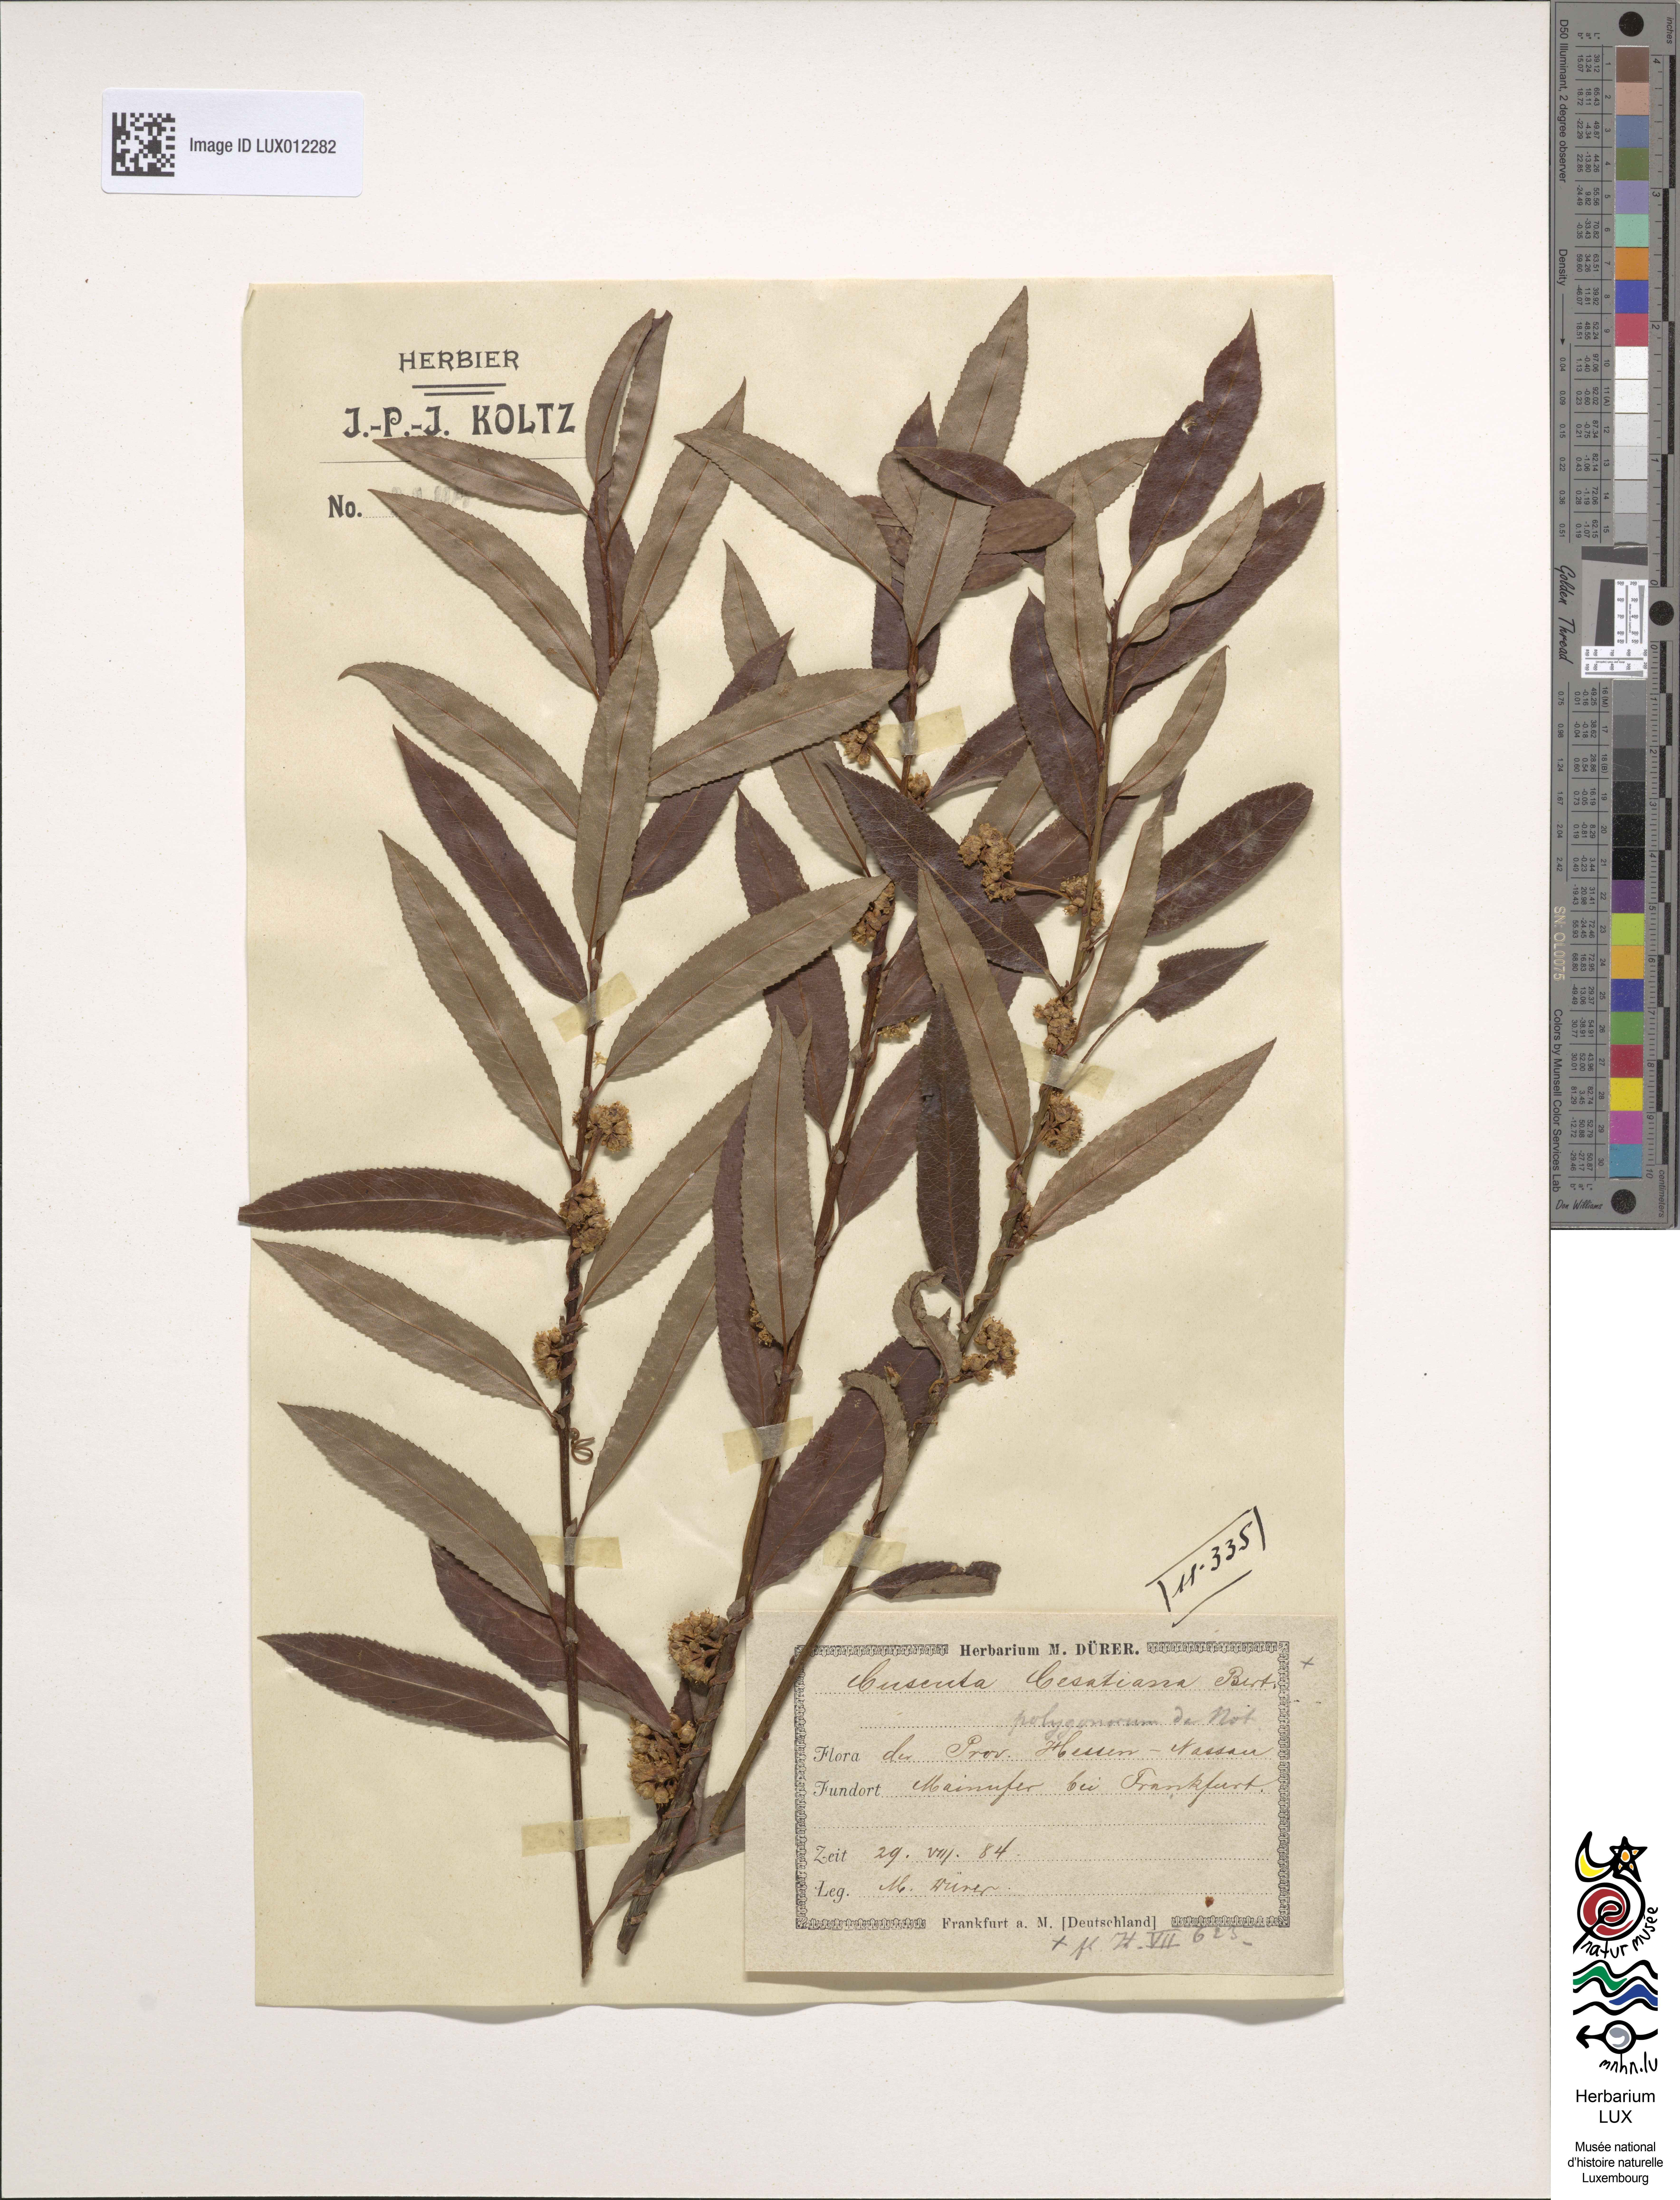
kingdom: Plantae
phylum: Tracheophyta
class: Magnoliopsida
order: Solanales
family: Convolvulaceae
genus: Cuscuta
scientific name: Cuscuta australis
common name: Australian dodder
